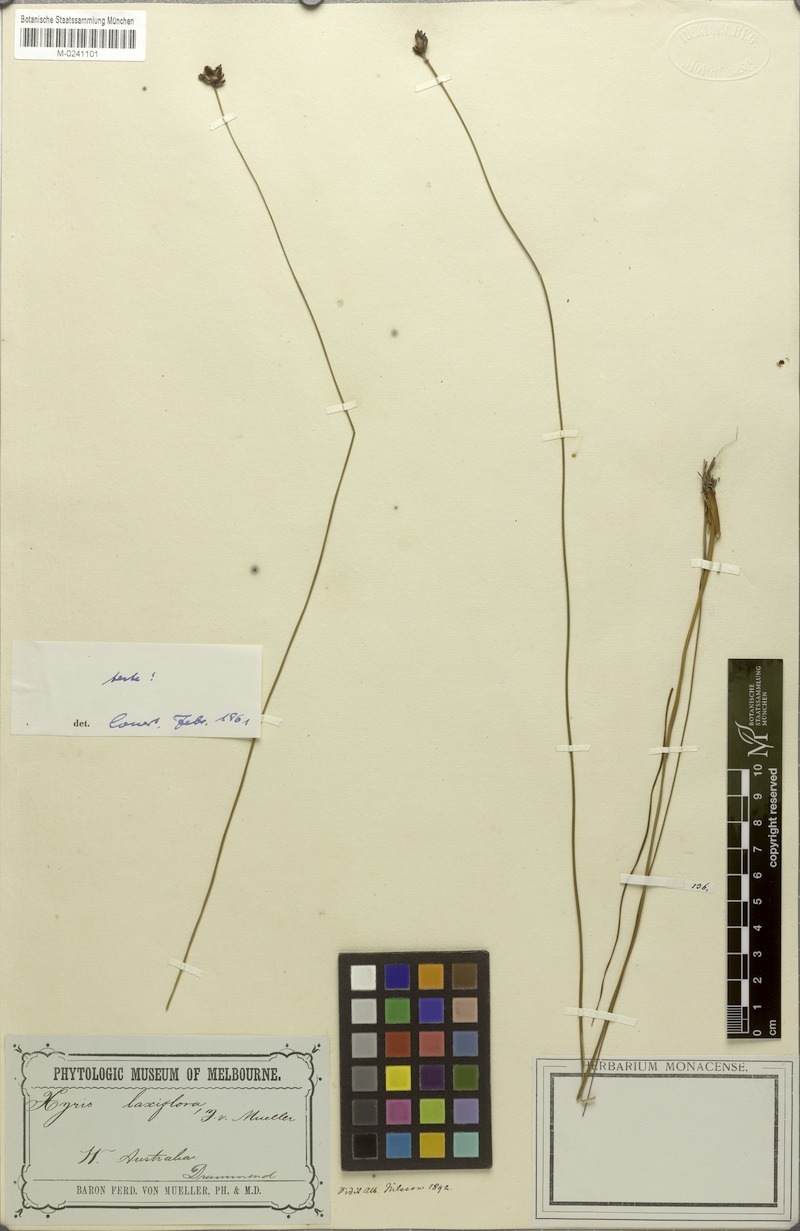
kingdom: Plantae
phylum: Tracheophyta
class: Liliopsida
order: Poales
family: Xyridaceae
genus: Xyris
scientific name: Xyris laxiflora
